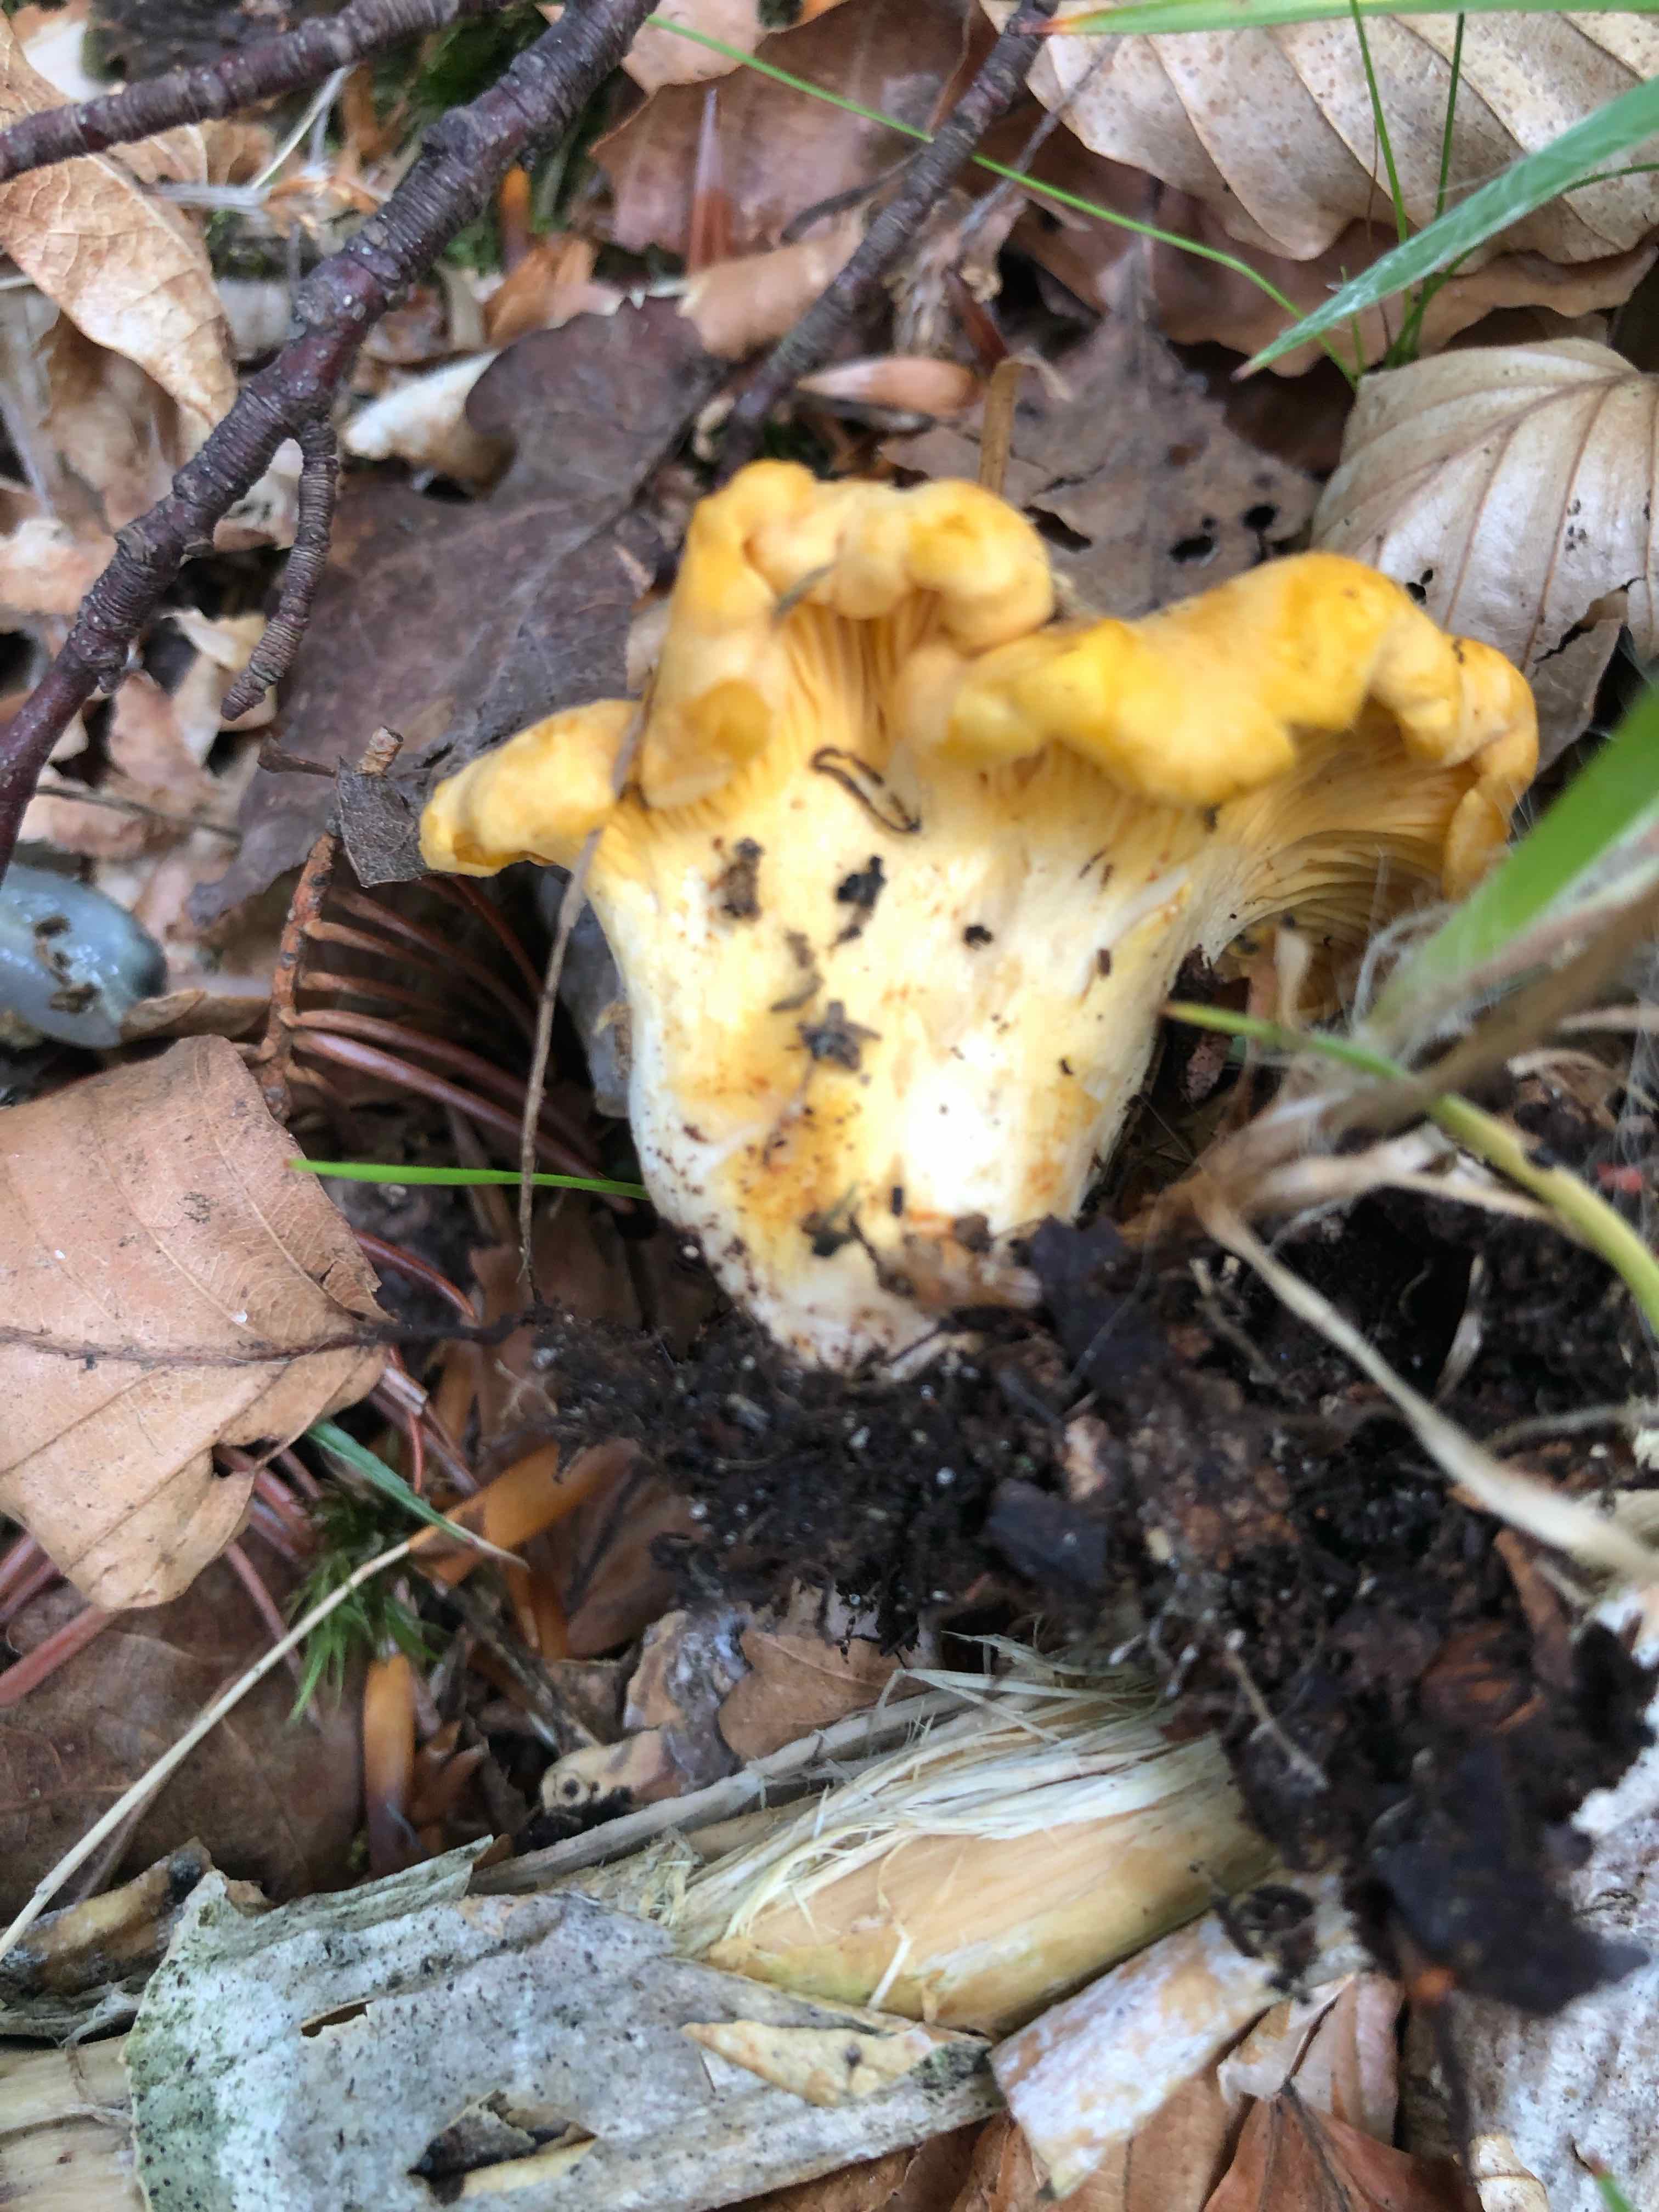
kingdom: Fungi
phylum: Basidiomycota
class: Agaricomycetes
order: Cantharellales
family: Hydnaceae
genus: Cantharellus
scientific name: Cantharellus pallens
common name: bleg kantarel
